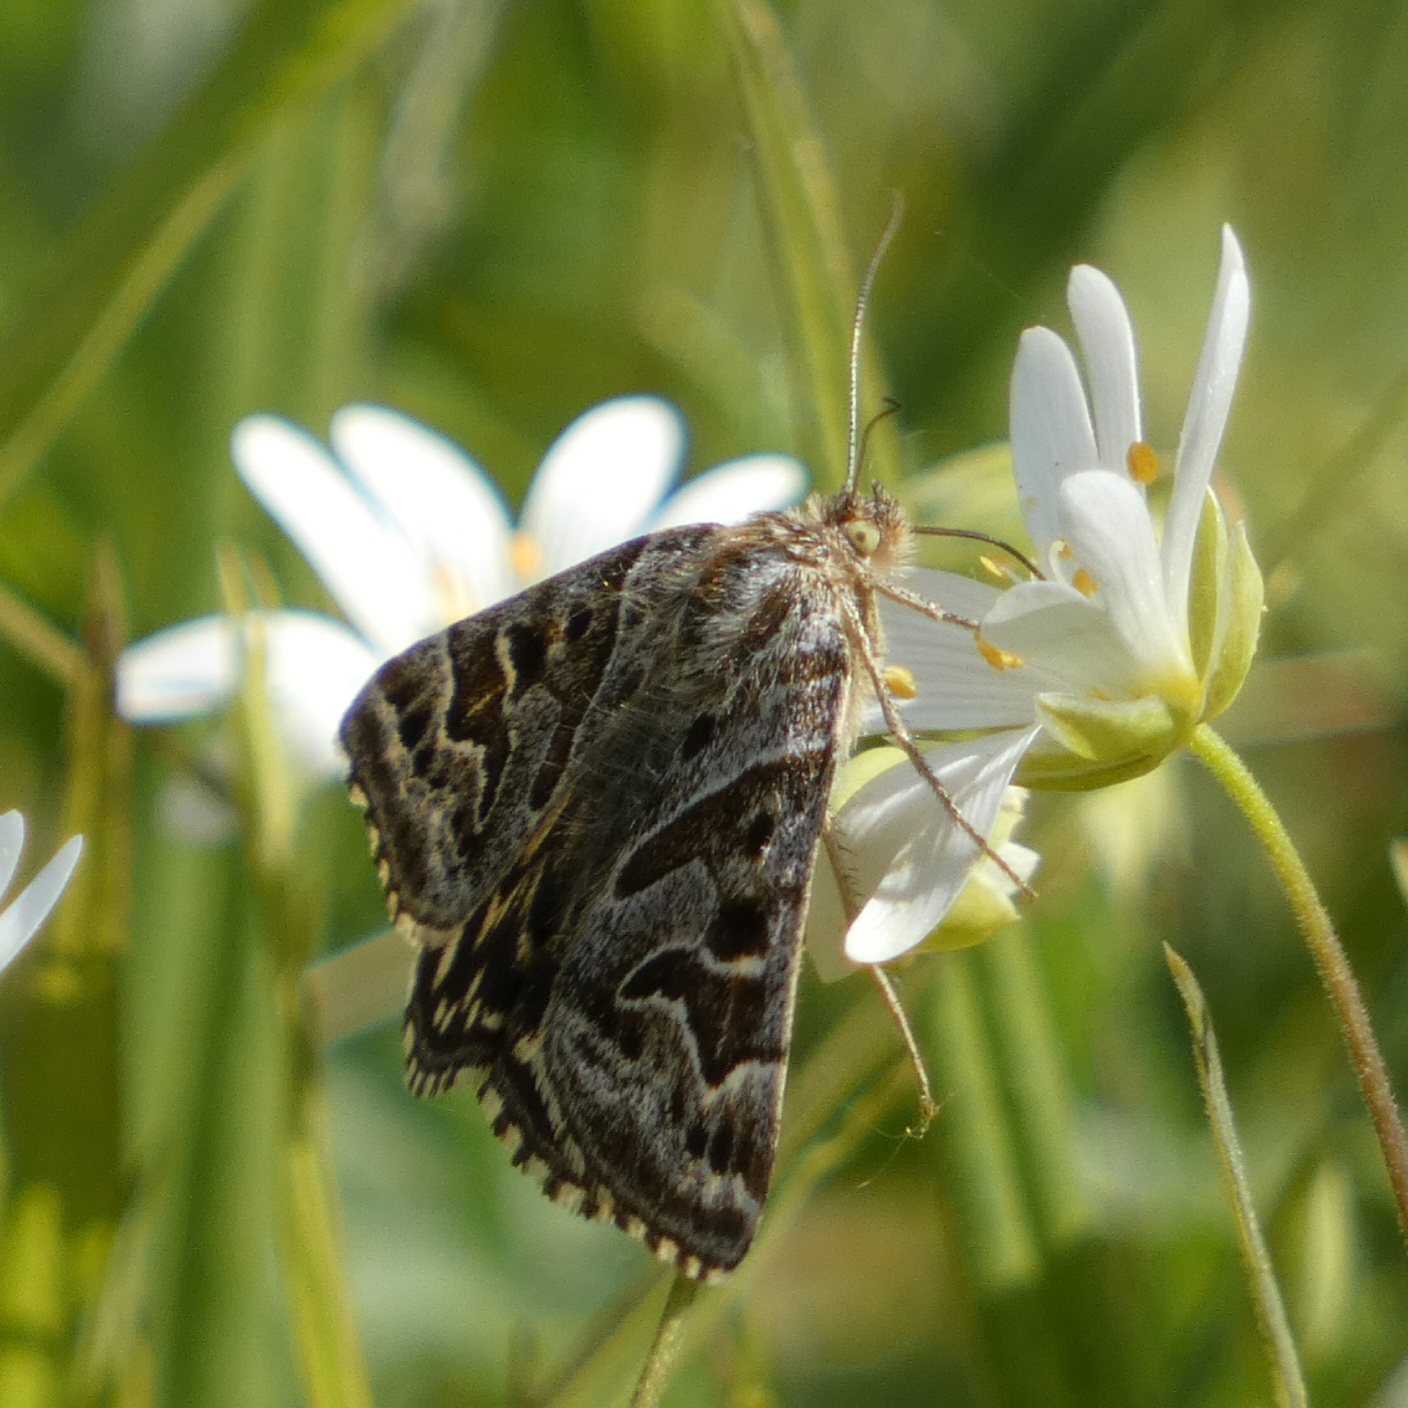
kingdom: Animalia
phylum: Arthropoda
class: Insecta
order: Lepidoptera
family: Erebidae
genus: Callistege
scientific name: Callistege mi
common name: Marmoreret kløverugle
